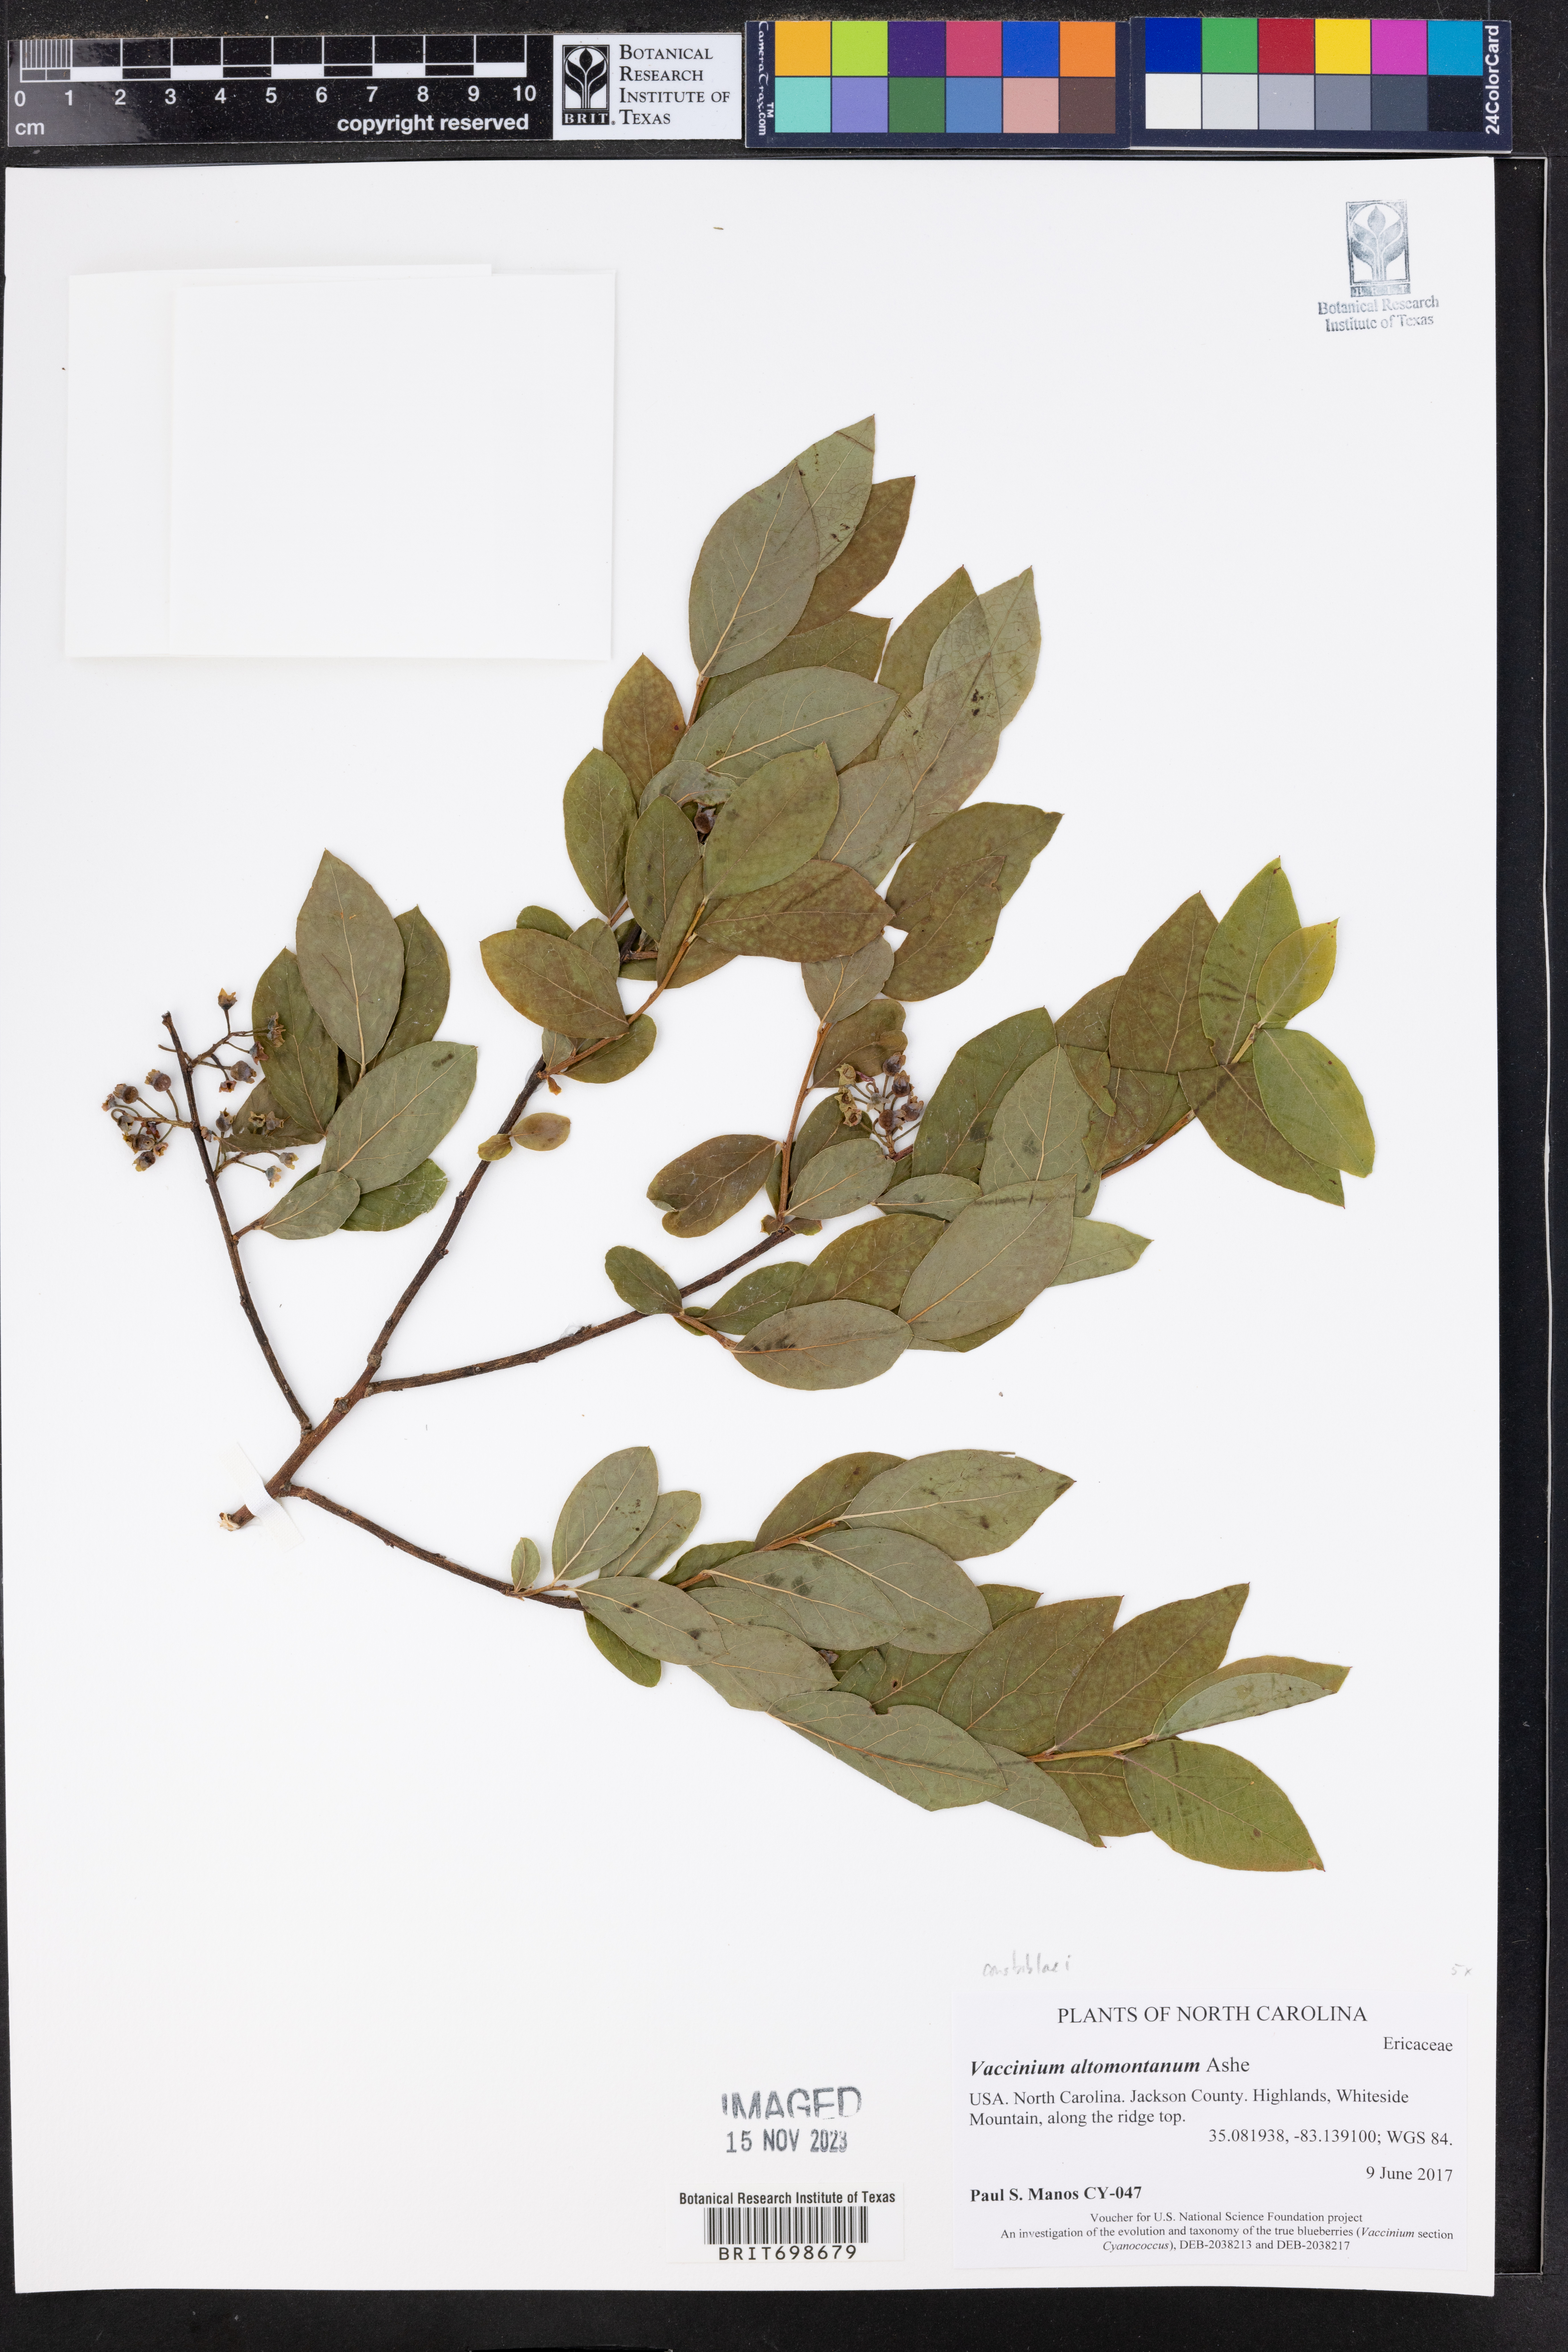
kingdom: Plantae
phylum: Tracheophyta
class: Magnoliopsida
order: Ericales
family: Ericaceae
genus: Vaccinium
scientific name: Vaccinium pallidum
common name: Blue ridge blueberry
